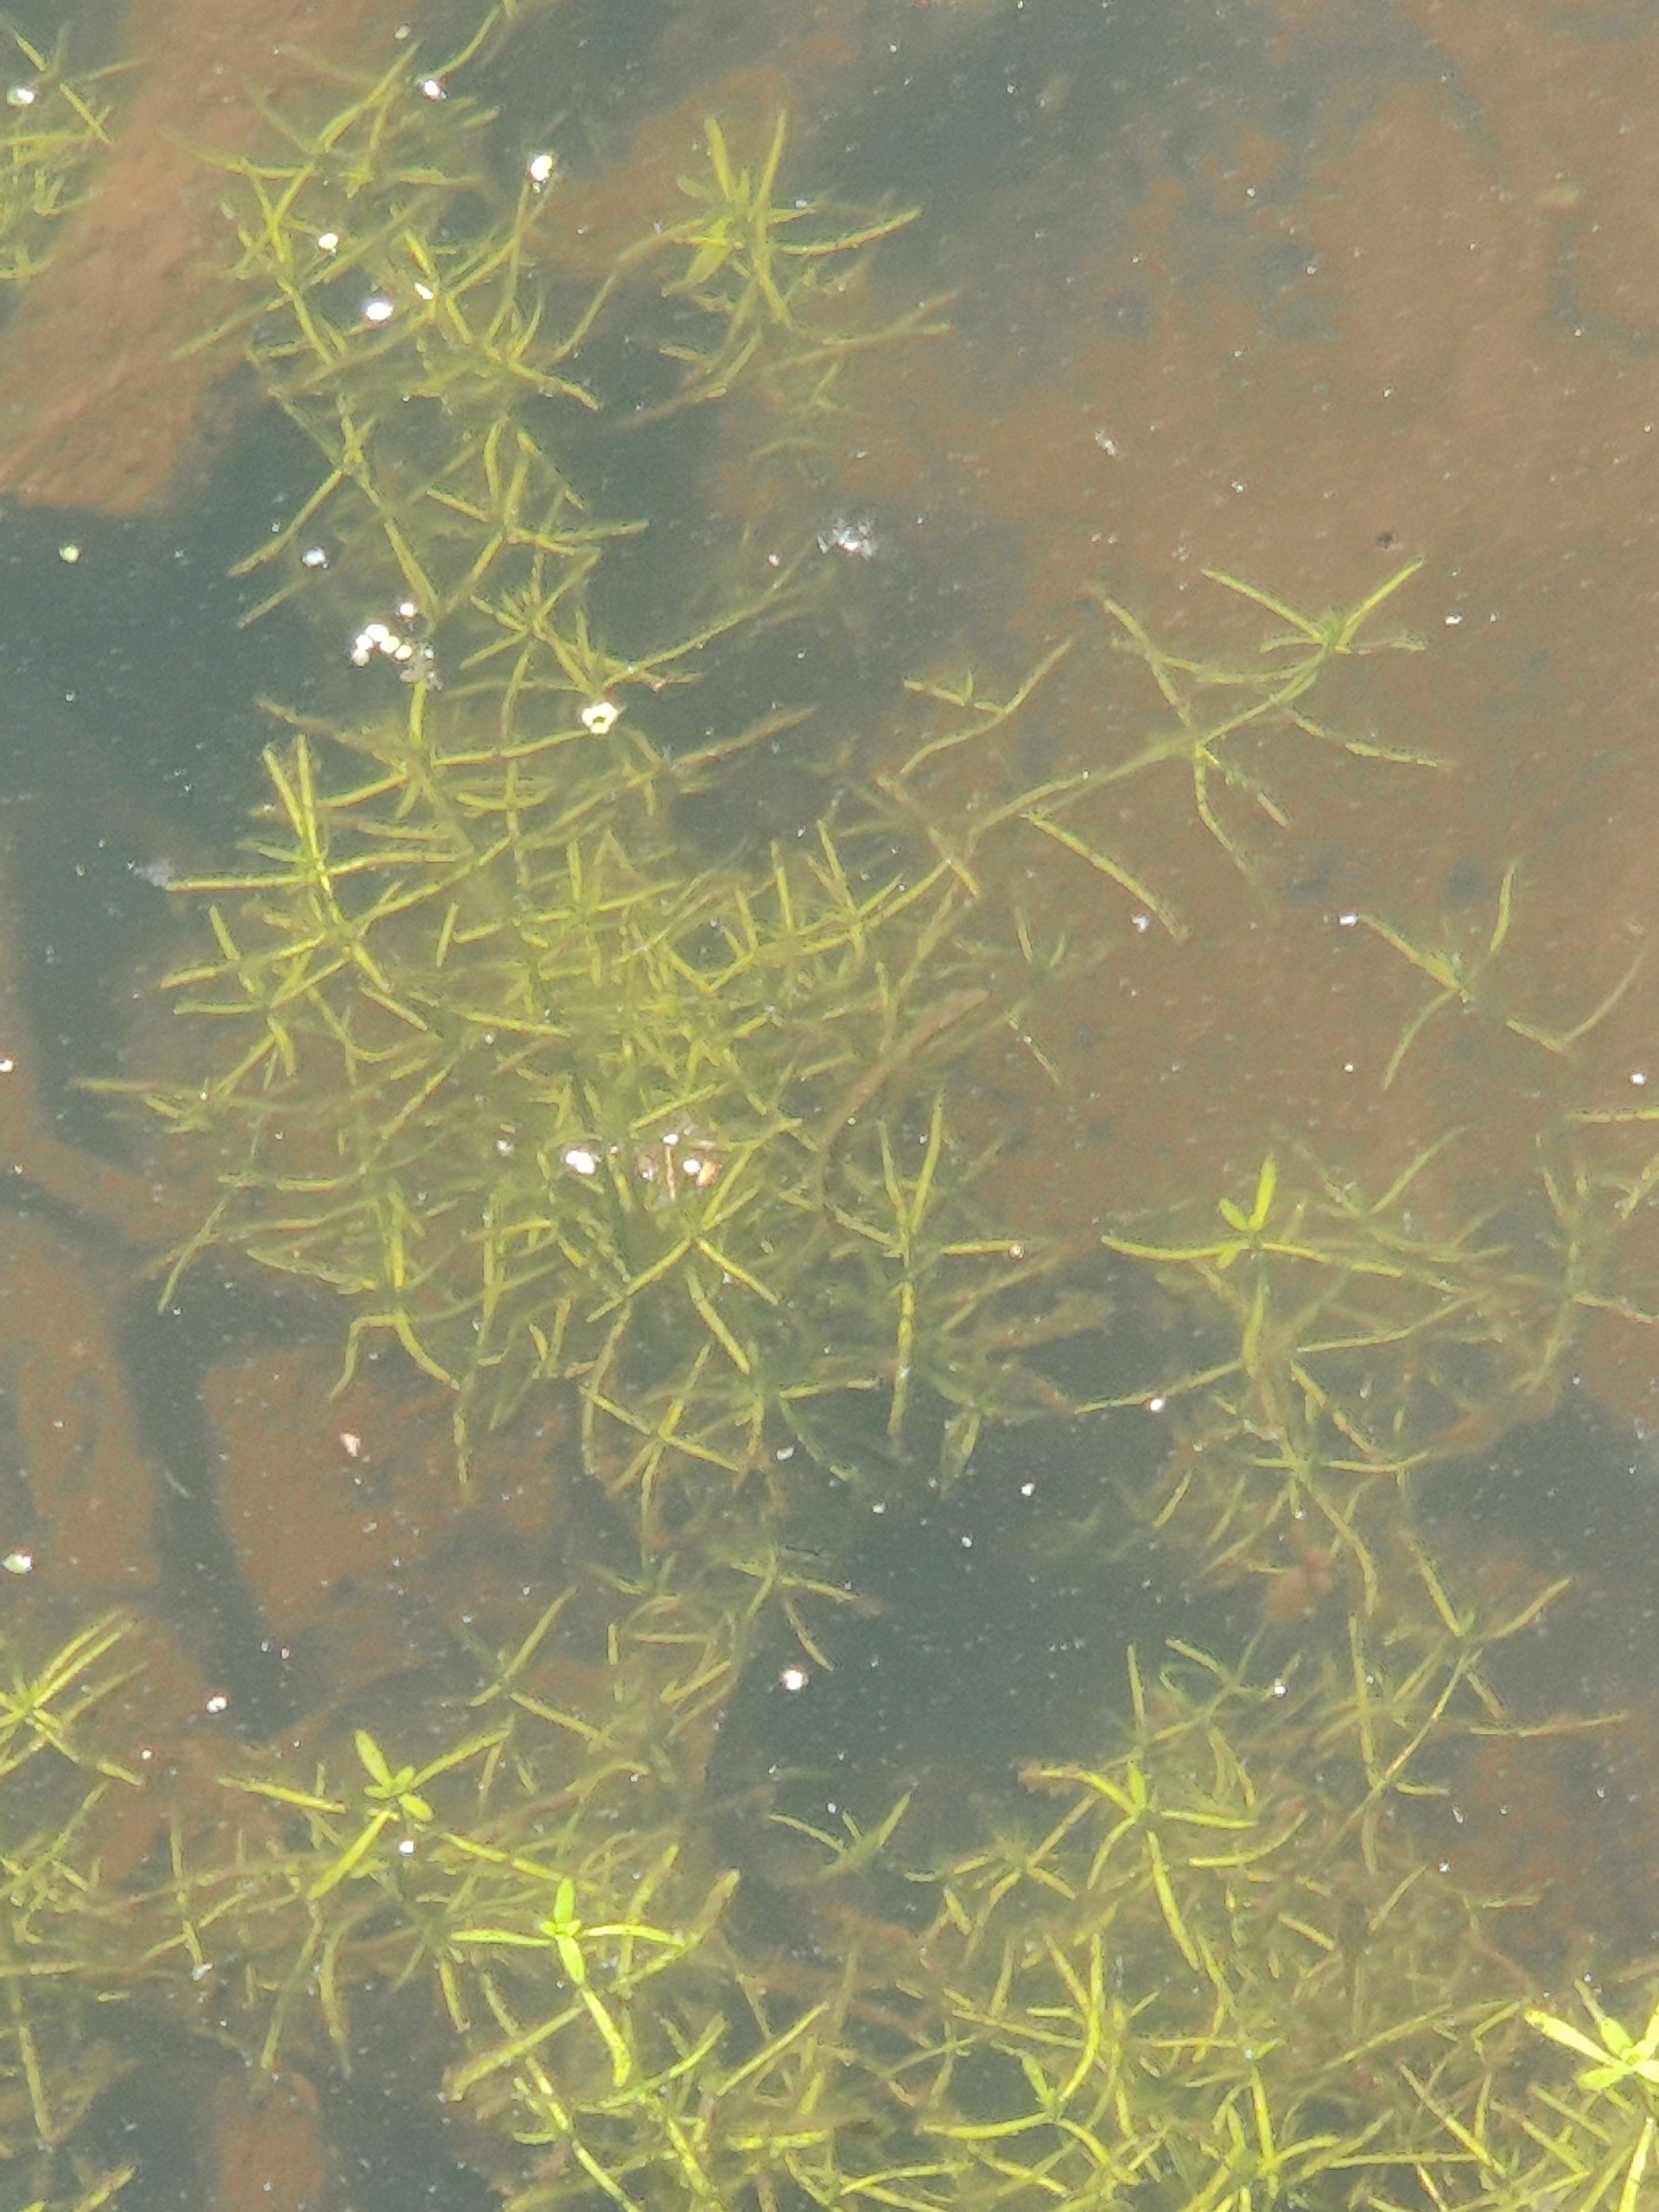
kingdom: Plantae
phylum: Tracheophyta
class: Magnoliopsida
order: Lamiales
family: Plantaginaceae
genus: Callitriche
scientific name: Callitriche
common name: Vandstjerneslægten
